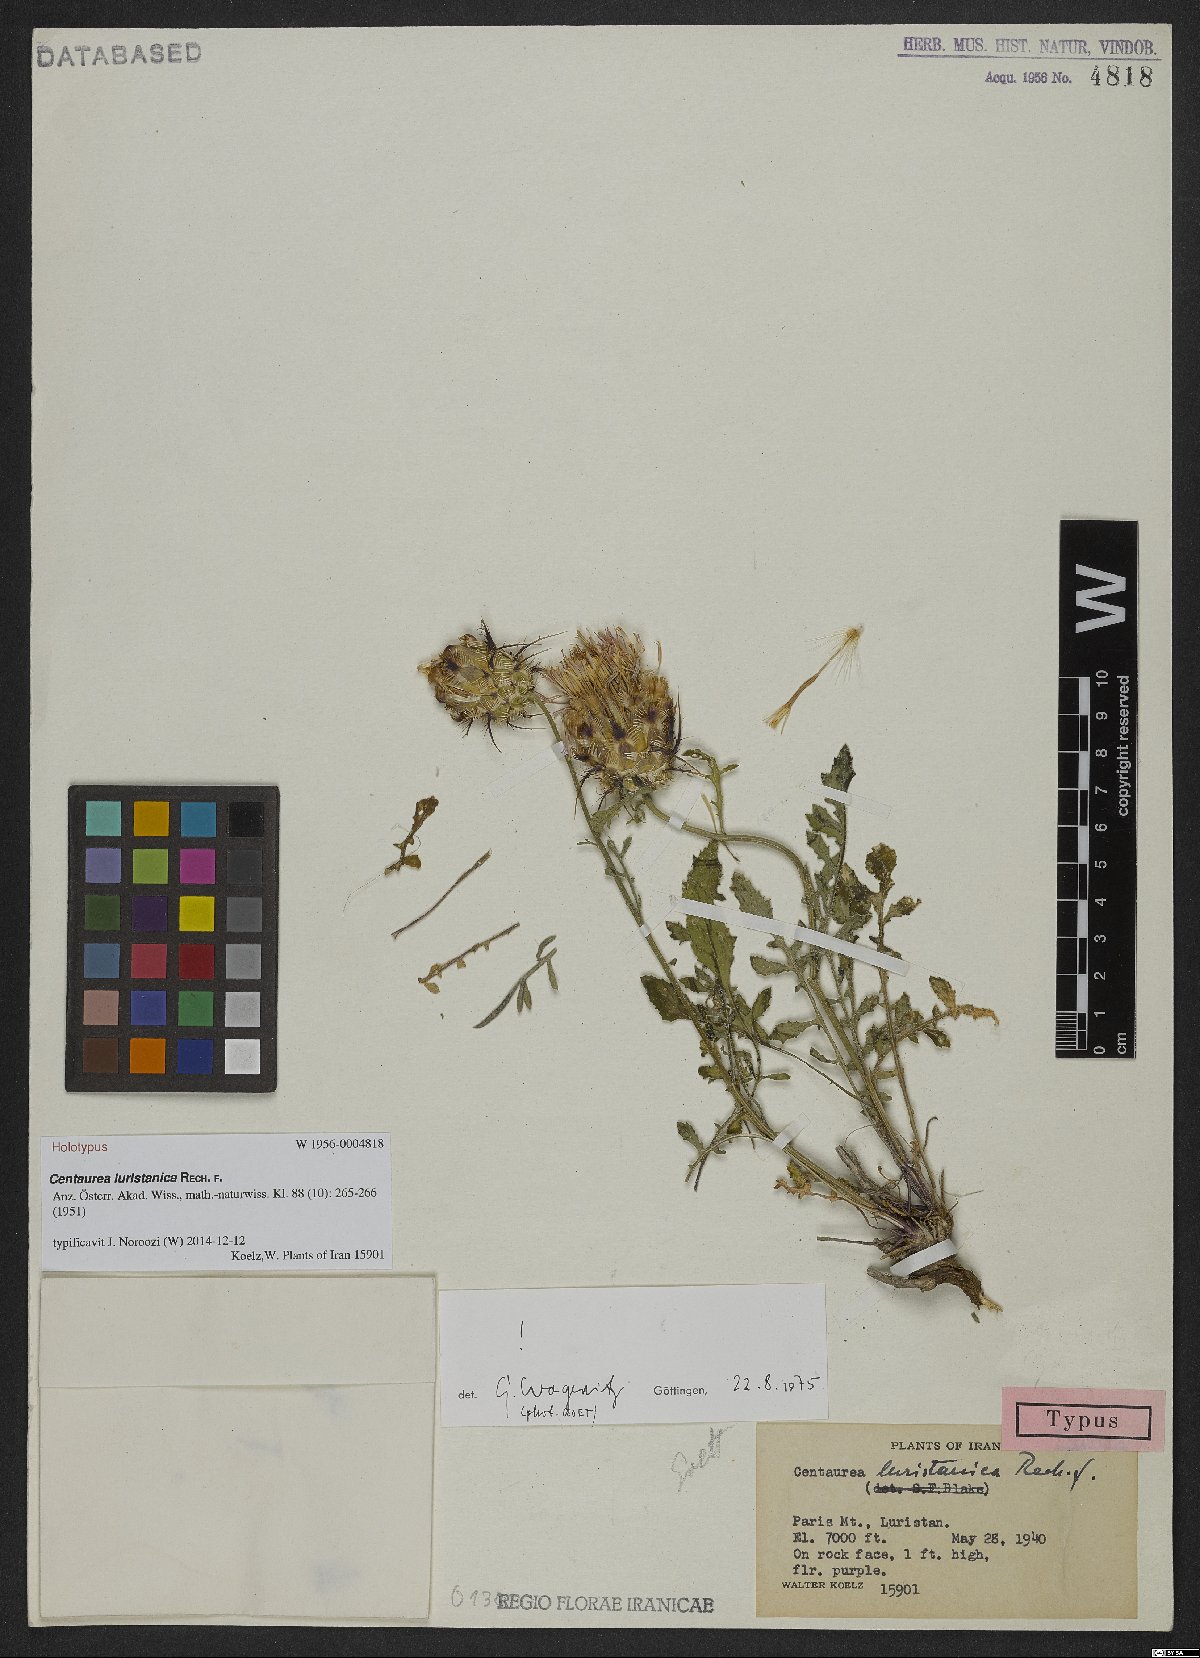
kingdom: Plantae
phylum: Tracheophyta
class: Magnoliopsida
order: Asterales
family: Asteraceae
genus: Centaurea
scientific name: Centaurea luristanica
